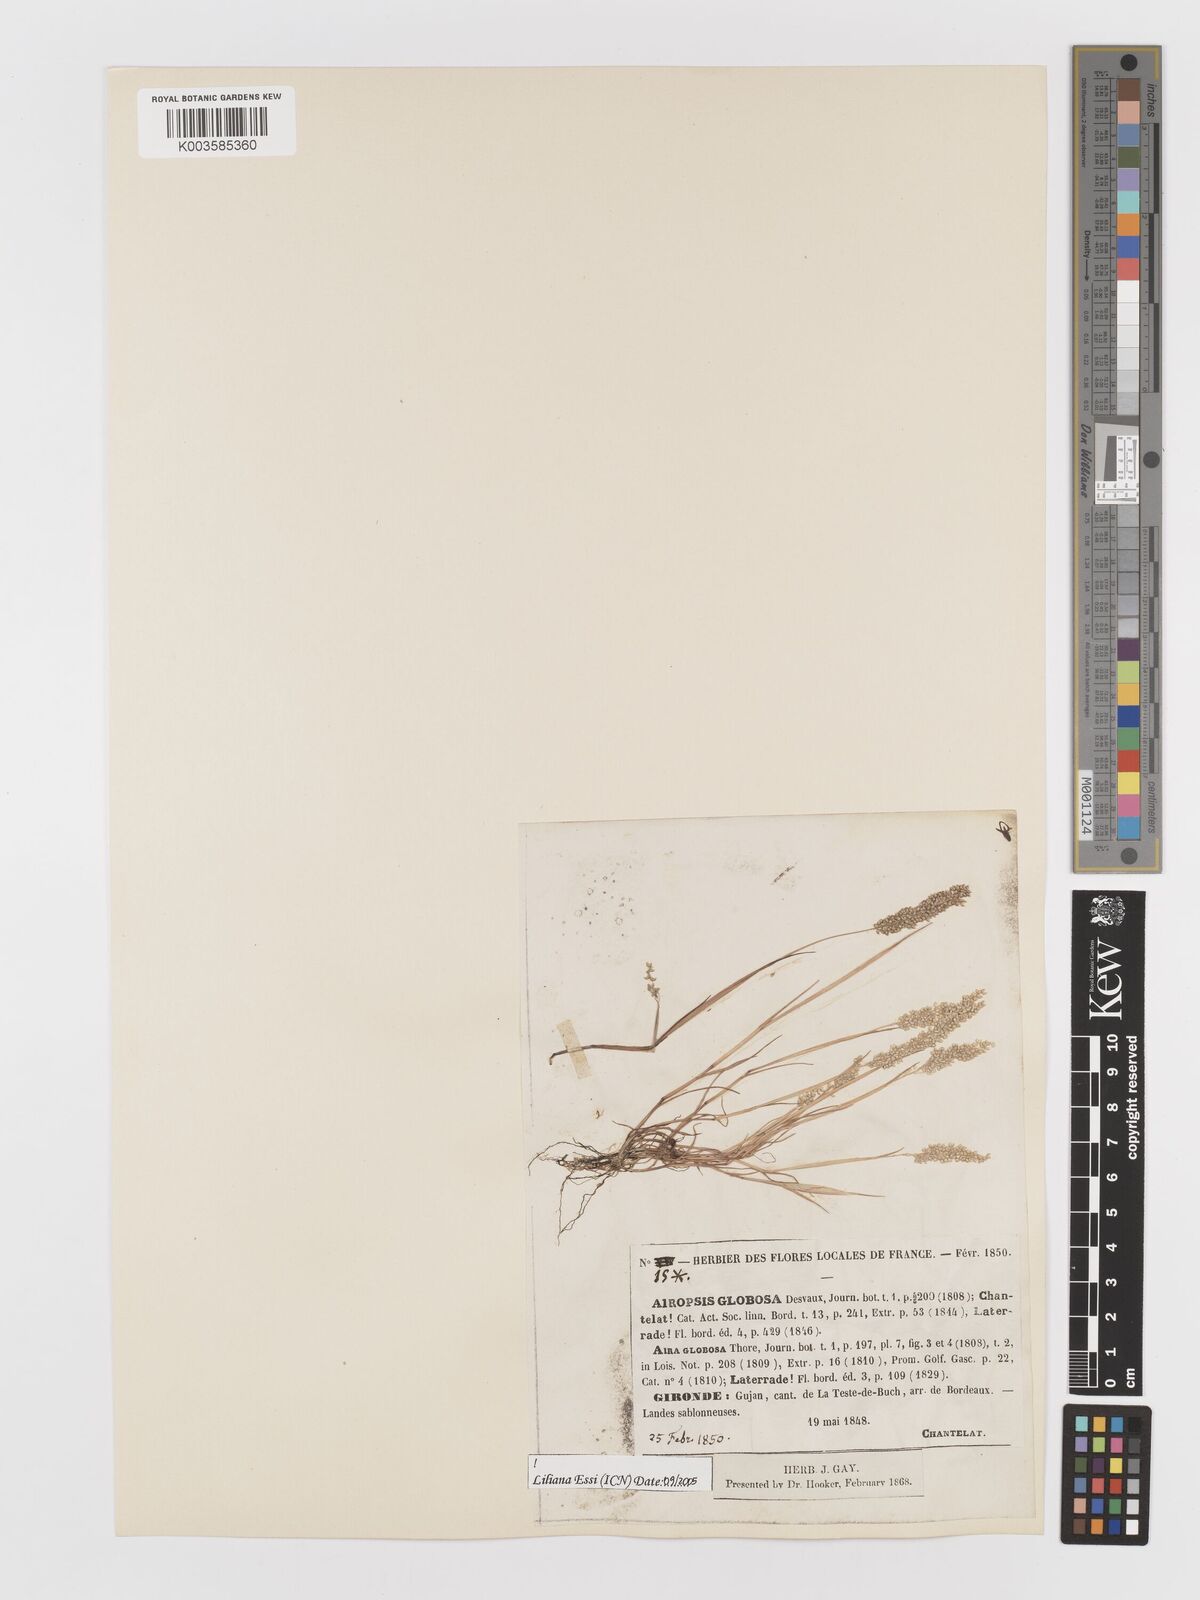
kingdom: Plantae
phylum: Tracheophyta
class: Liliopsida
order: Poales
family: Poaceae
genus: Airopsis
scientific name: Airopsis tenella
